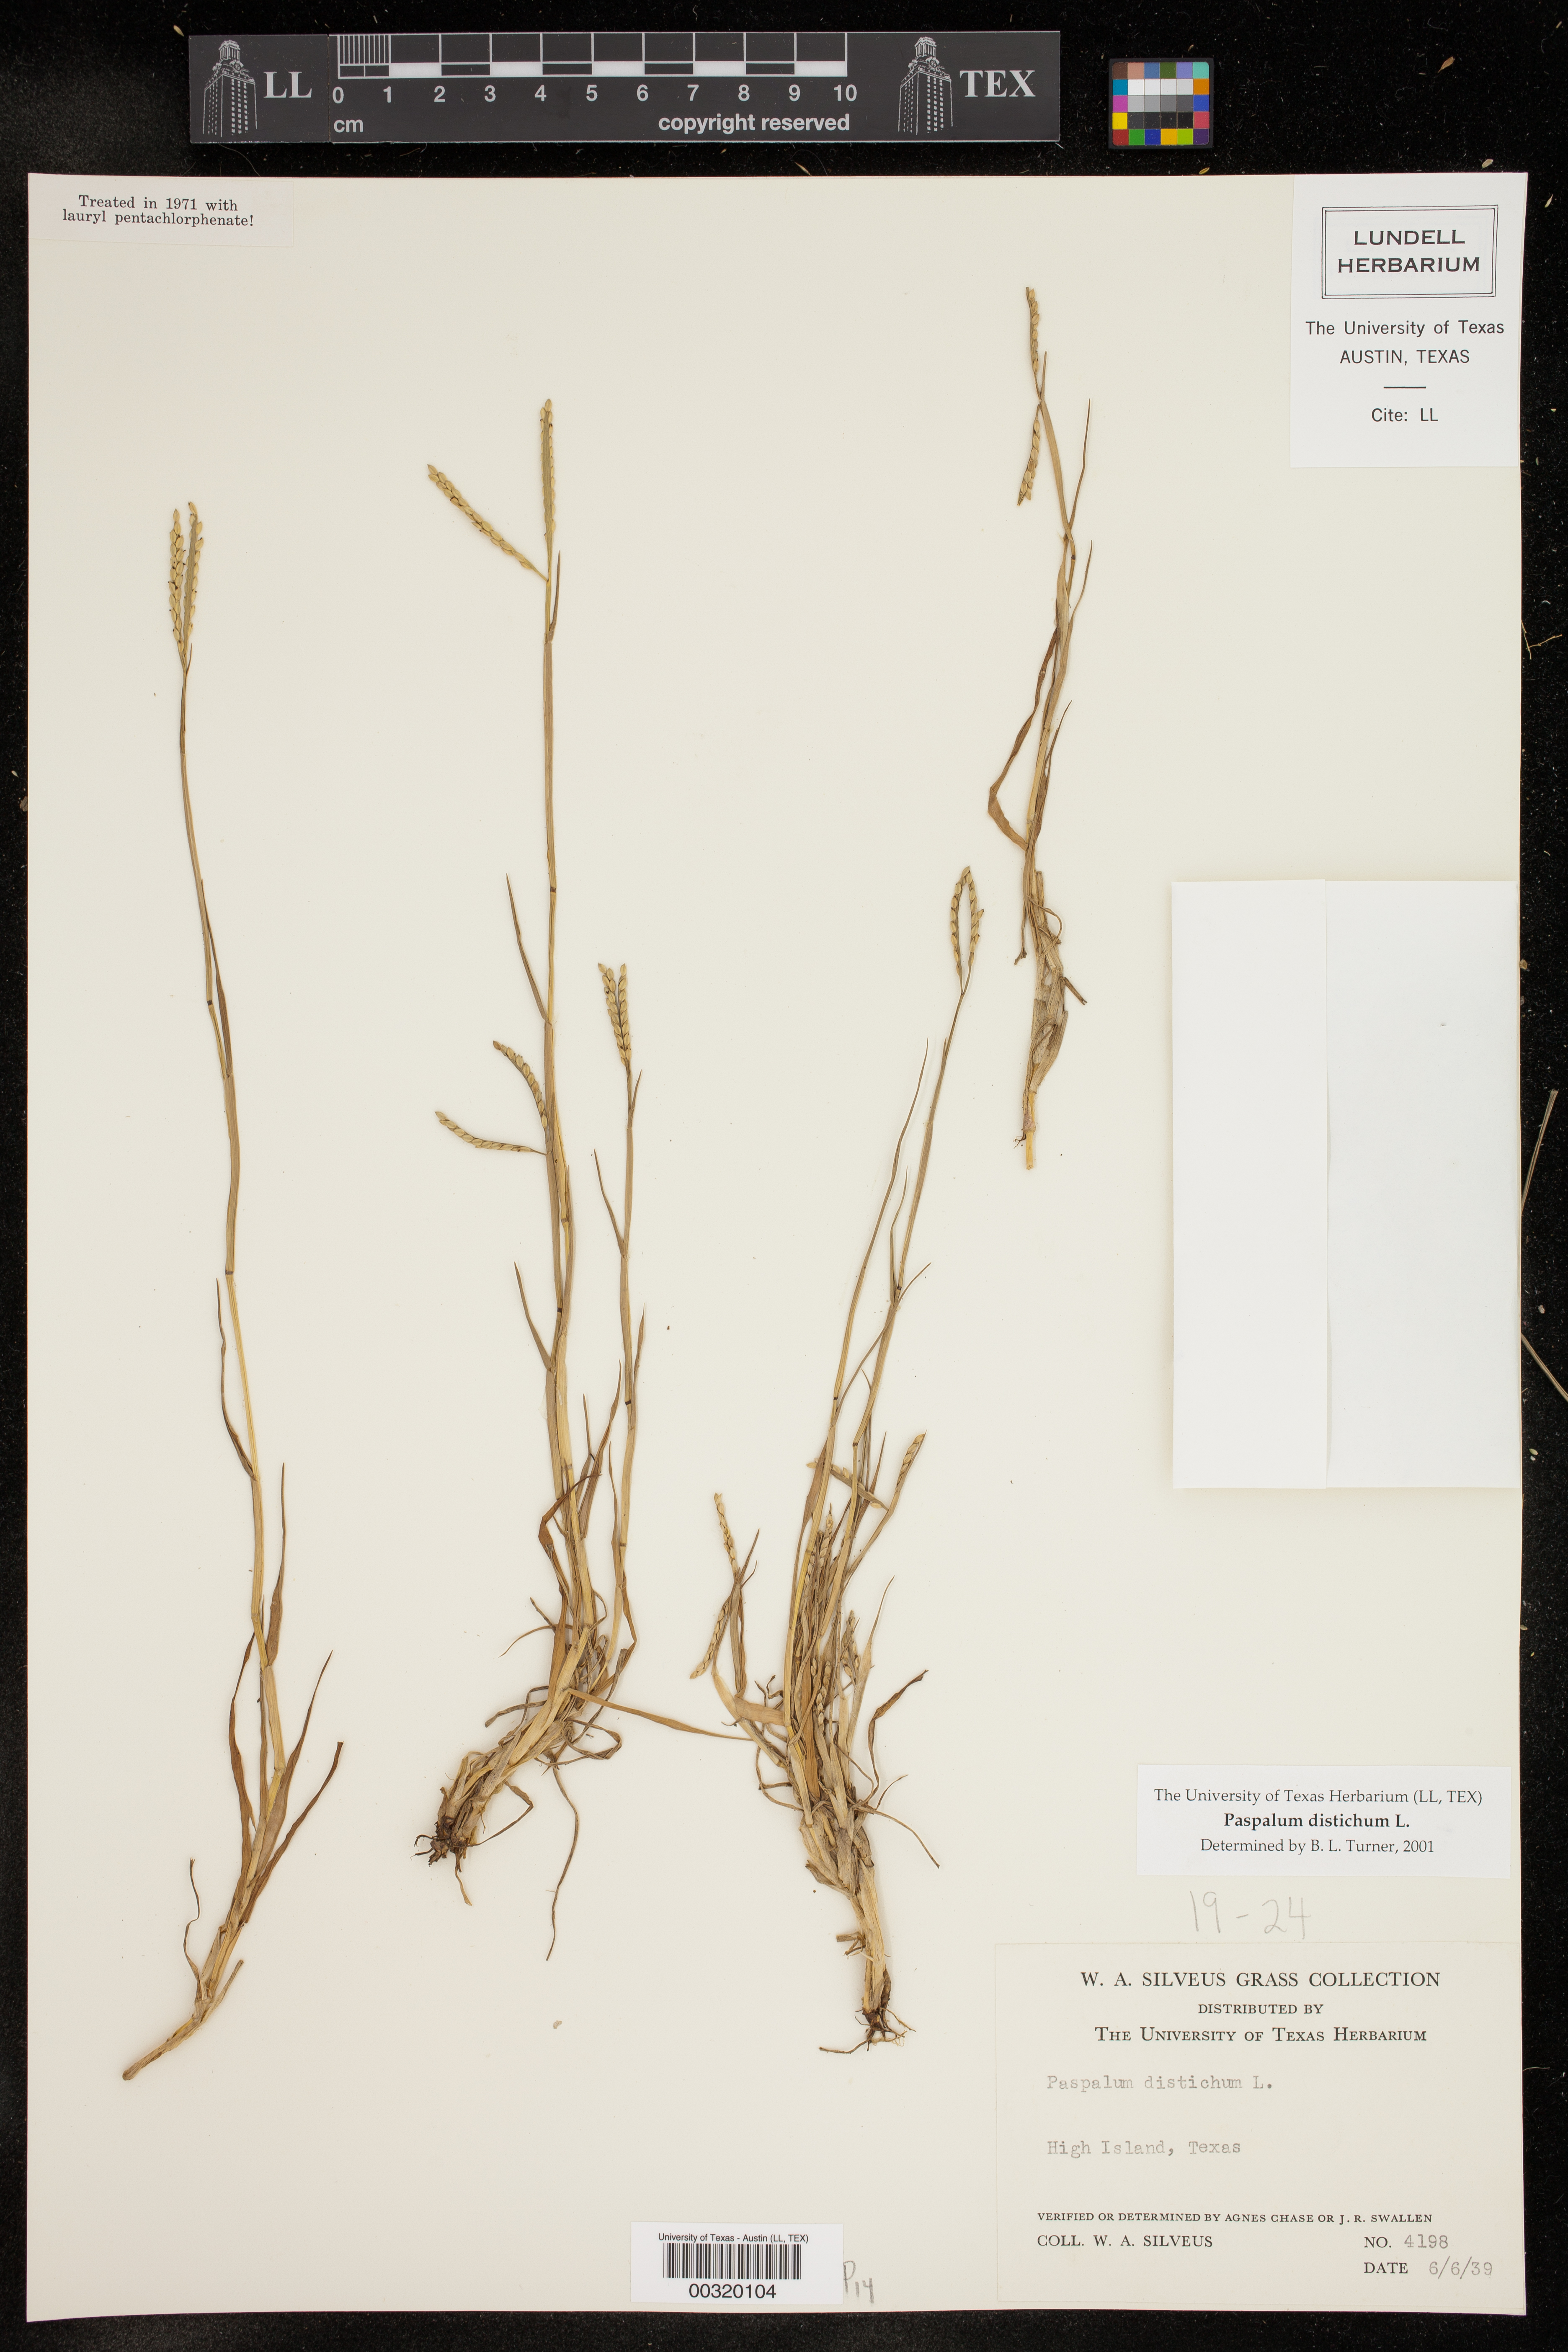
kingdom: Plantae
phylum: Tracheophyta
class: Liliopsida
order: Poales
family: Poaceae
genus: Paspalum
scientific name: Paspalum distichum
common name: Knotgrass
